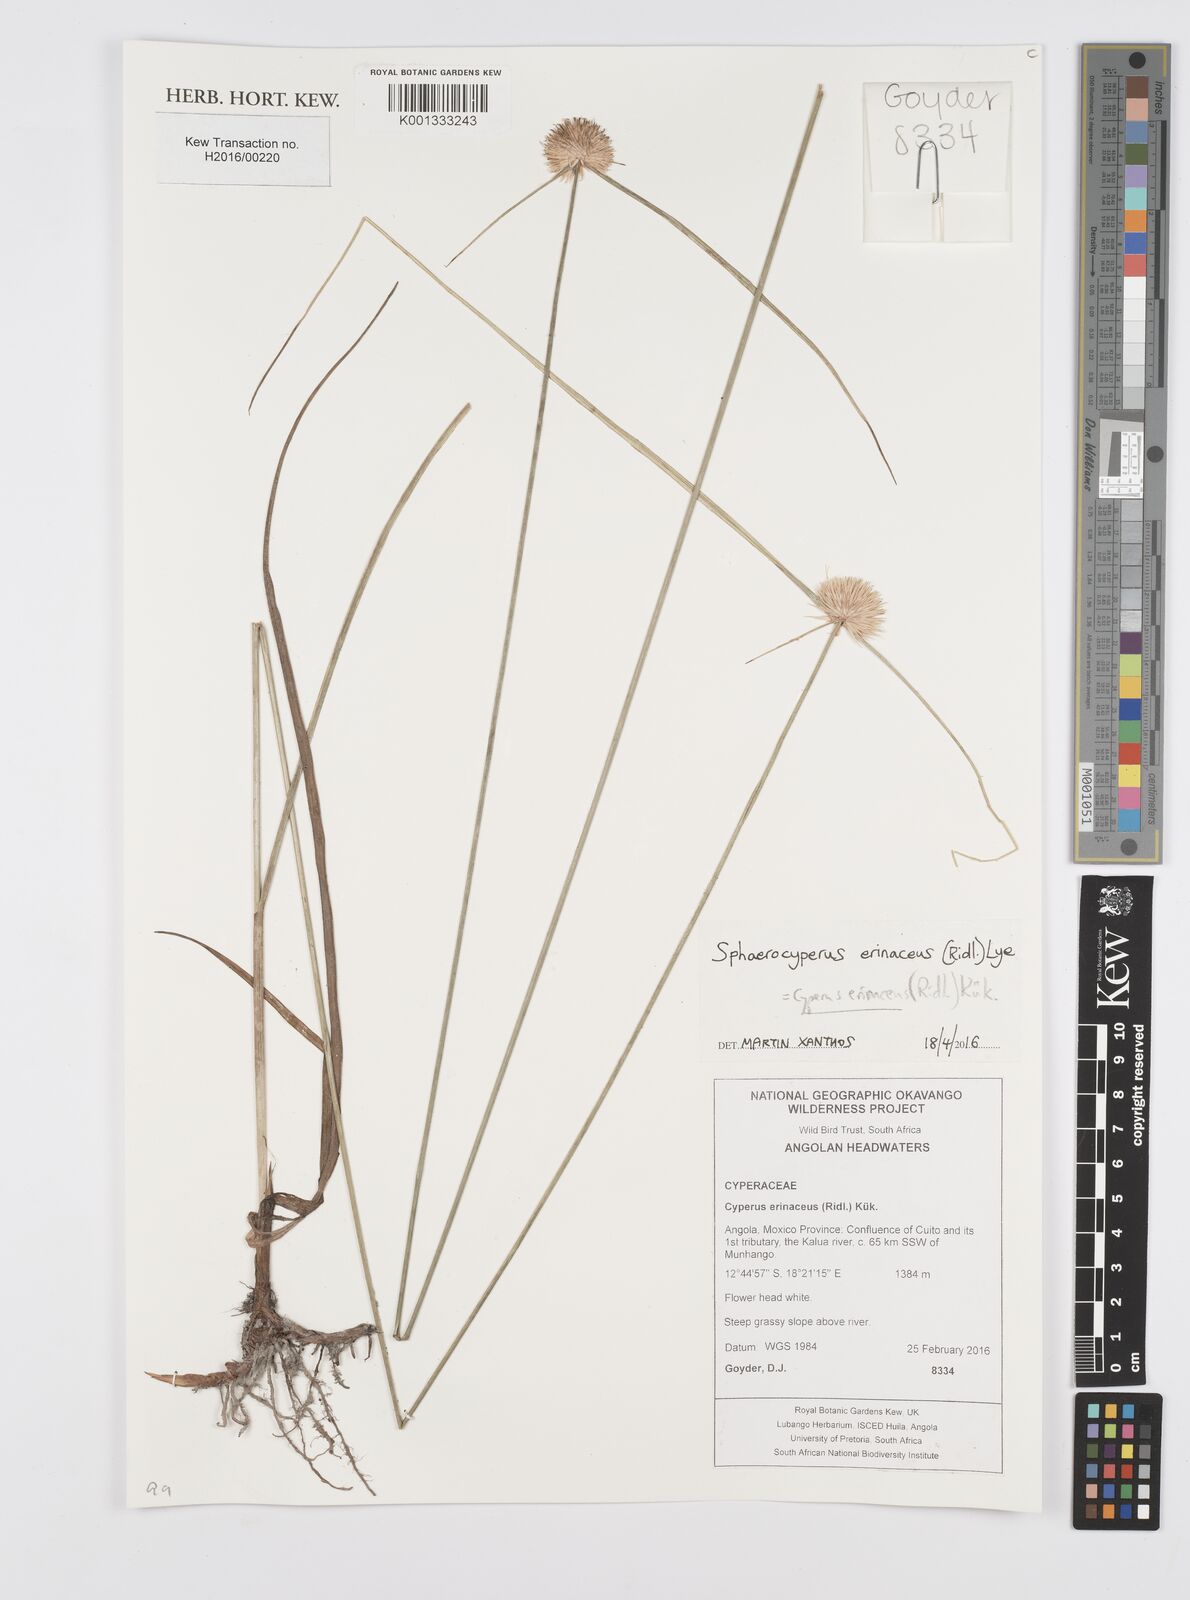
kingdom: Plantae
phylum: Tracheophyta
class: Liliopsida
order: Poales
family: Cyperaceae
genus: Cyperus
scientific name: Cyperus erinaceus
